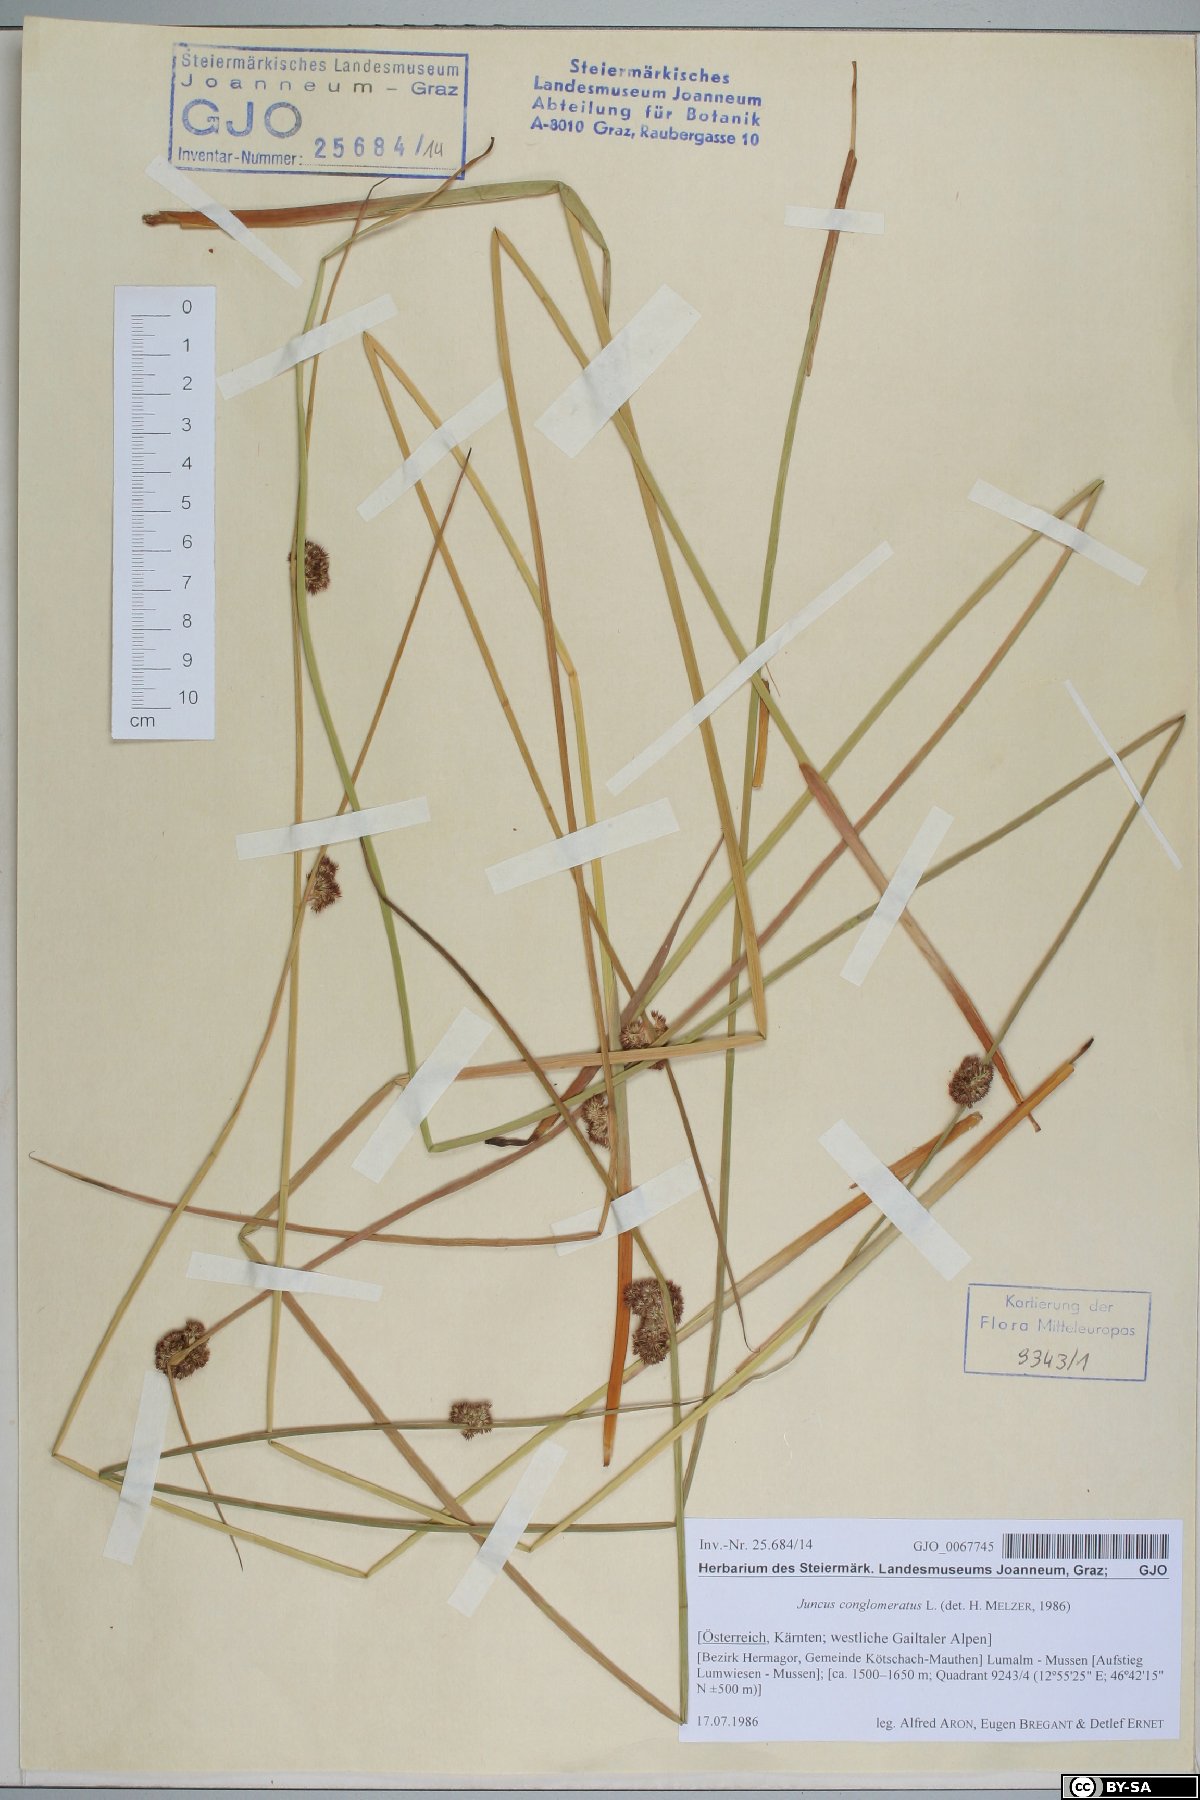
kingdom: Plantae
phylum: Tracheophyta
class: Liliopsida
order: Poales
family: Juncaceae
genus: Juncus
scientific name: Juncus conglomeratus
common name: Compact rush
